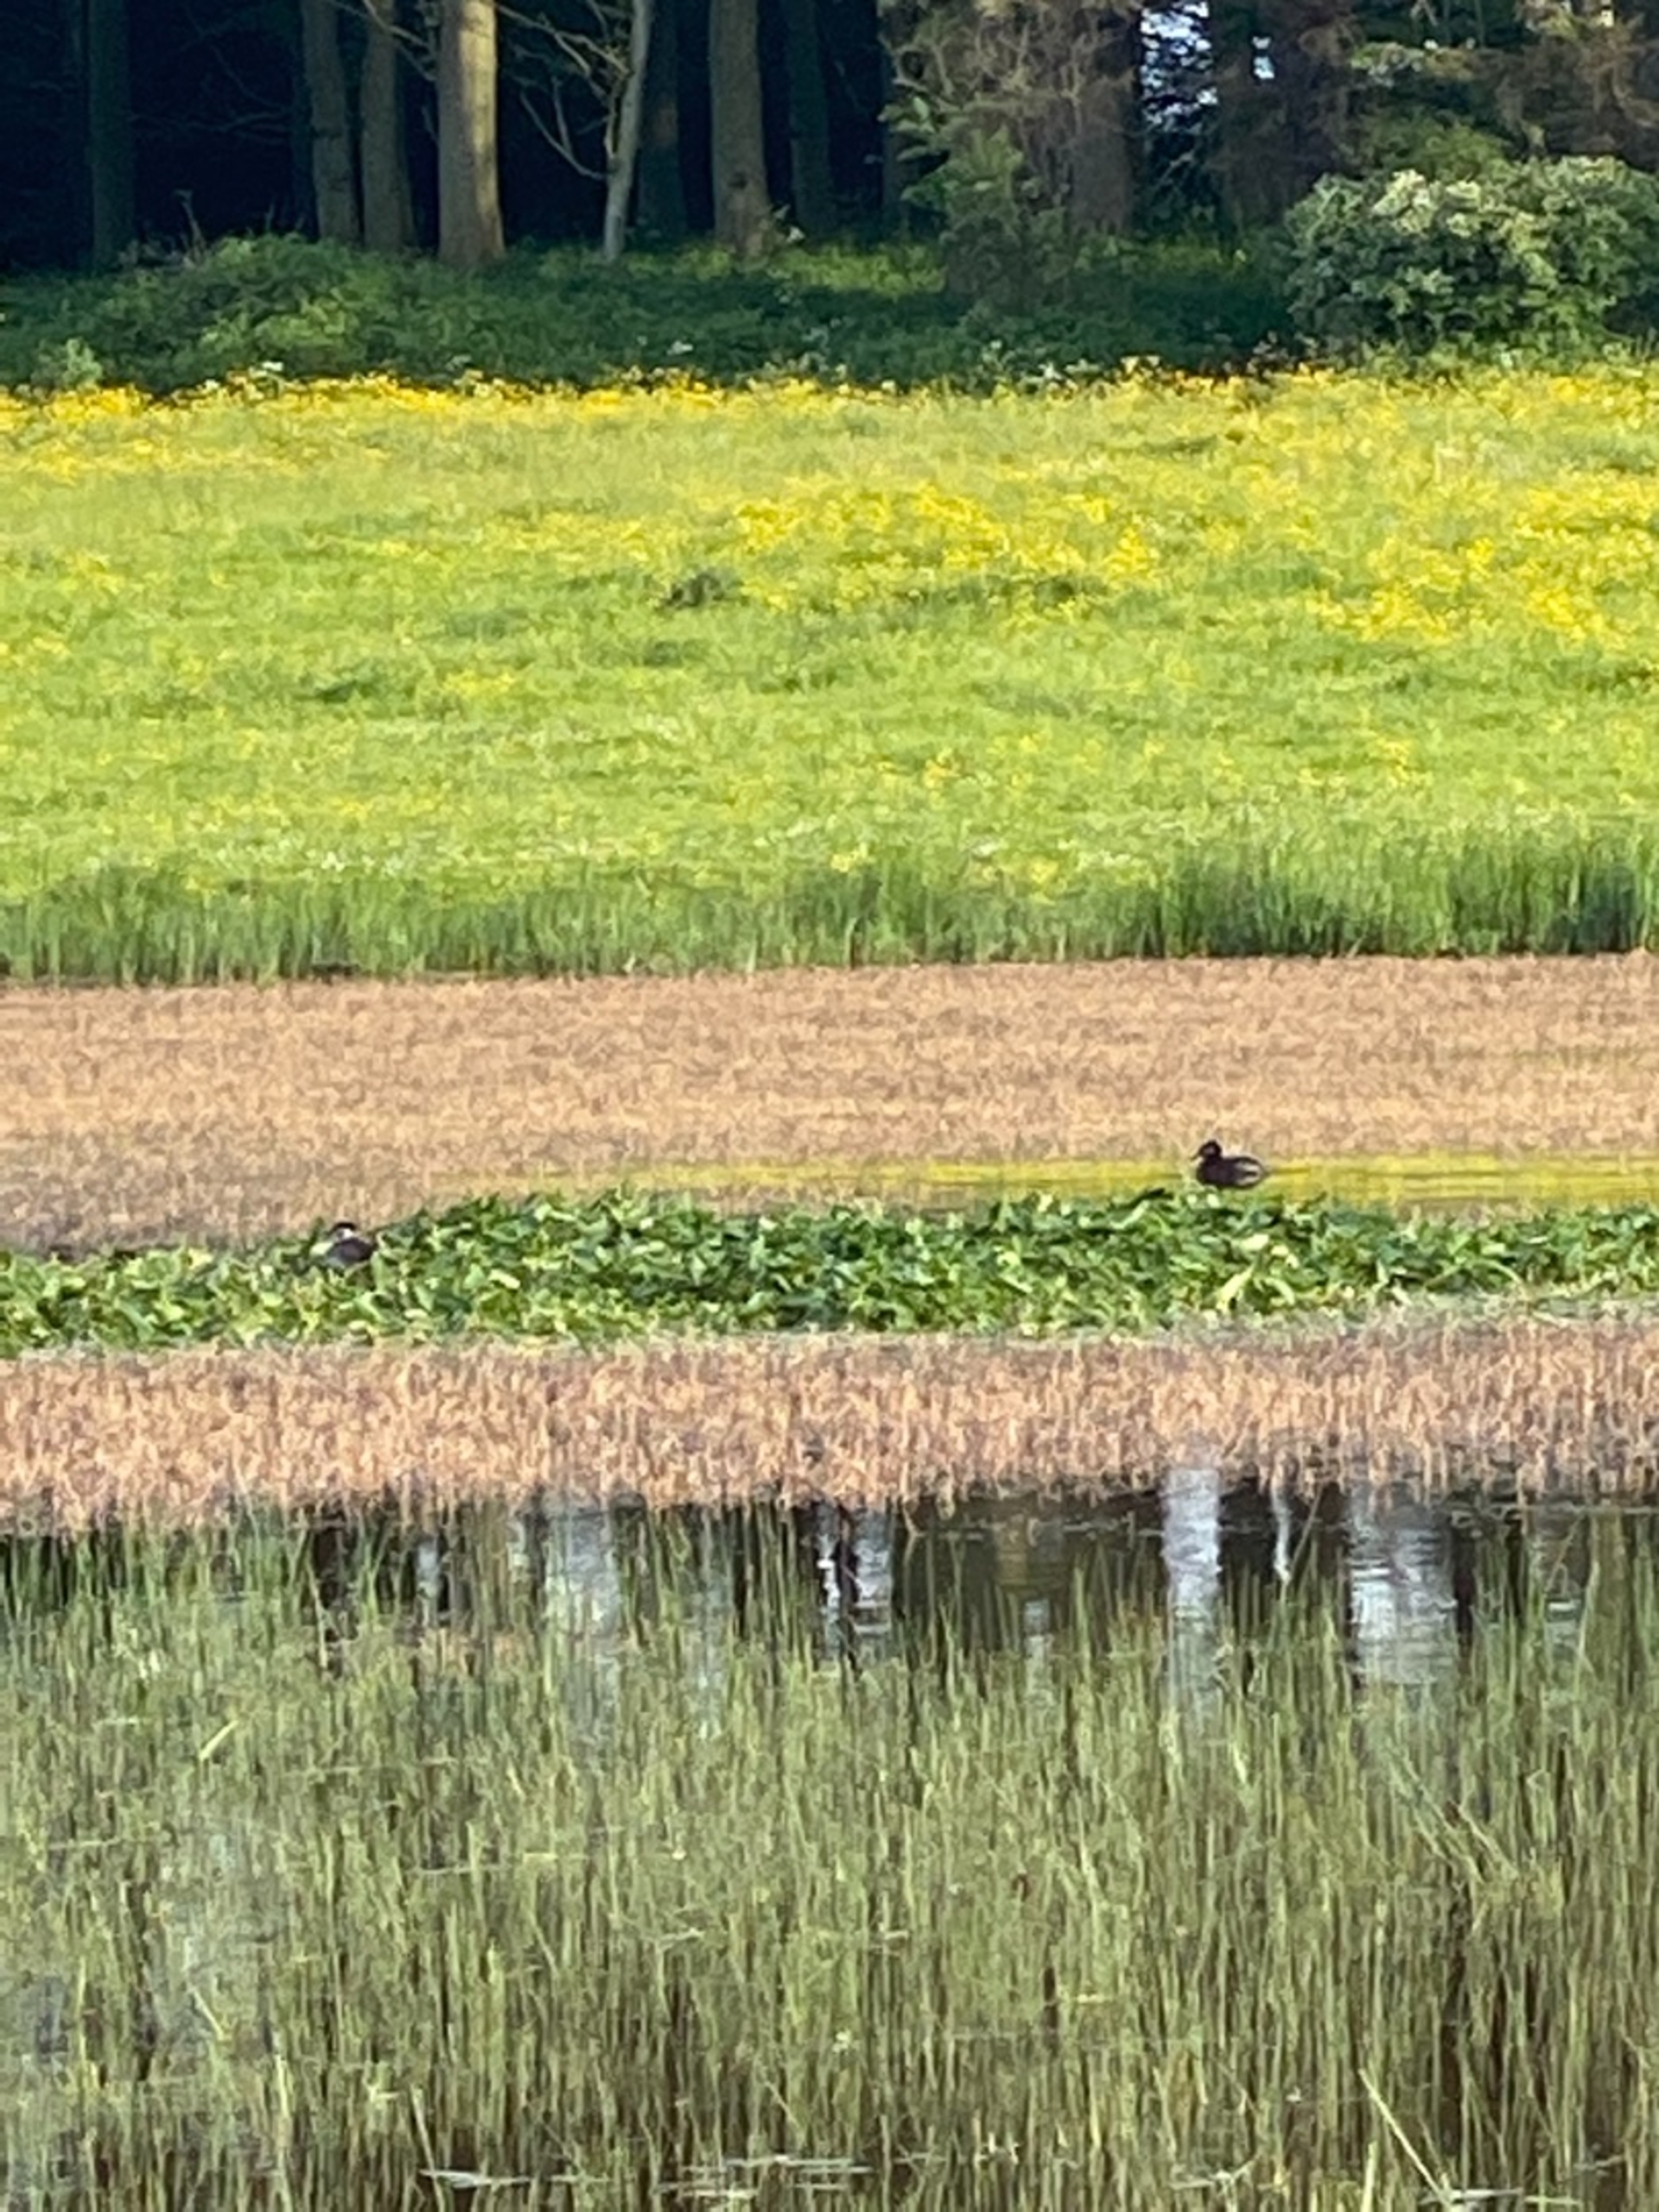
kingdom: Animalia
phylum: Chordata
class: Aves
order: Podicipediformes
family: Podicipedidae
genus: Podiceps
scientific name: Podiceps grisegena
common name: Gråstrubet lappedykker
